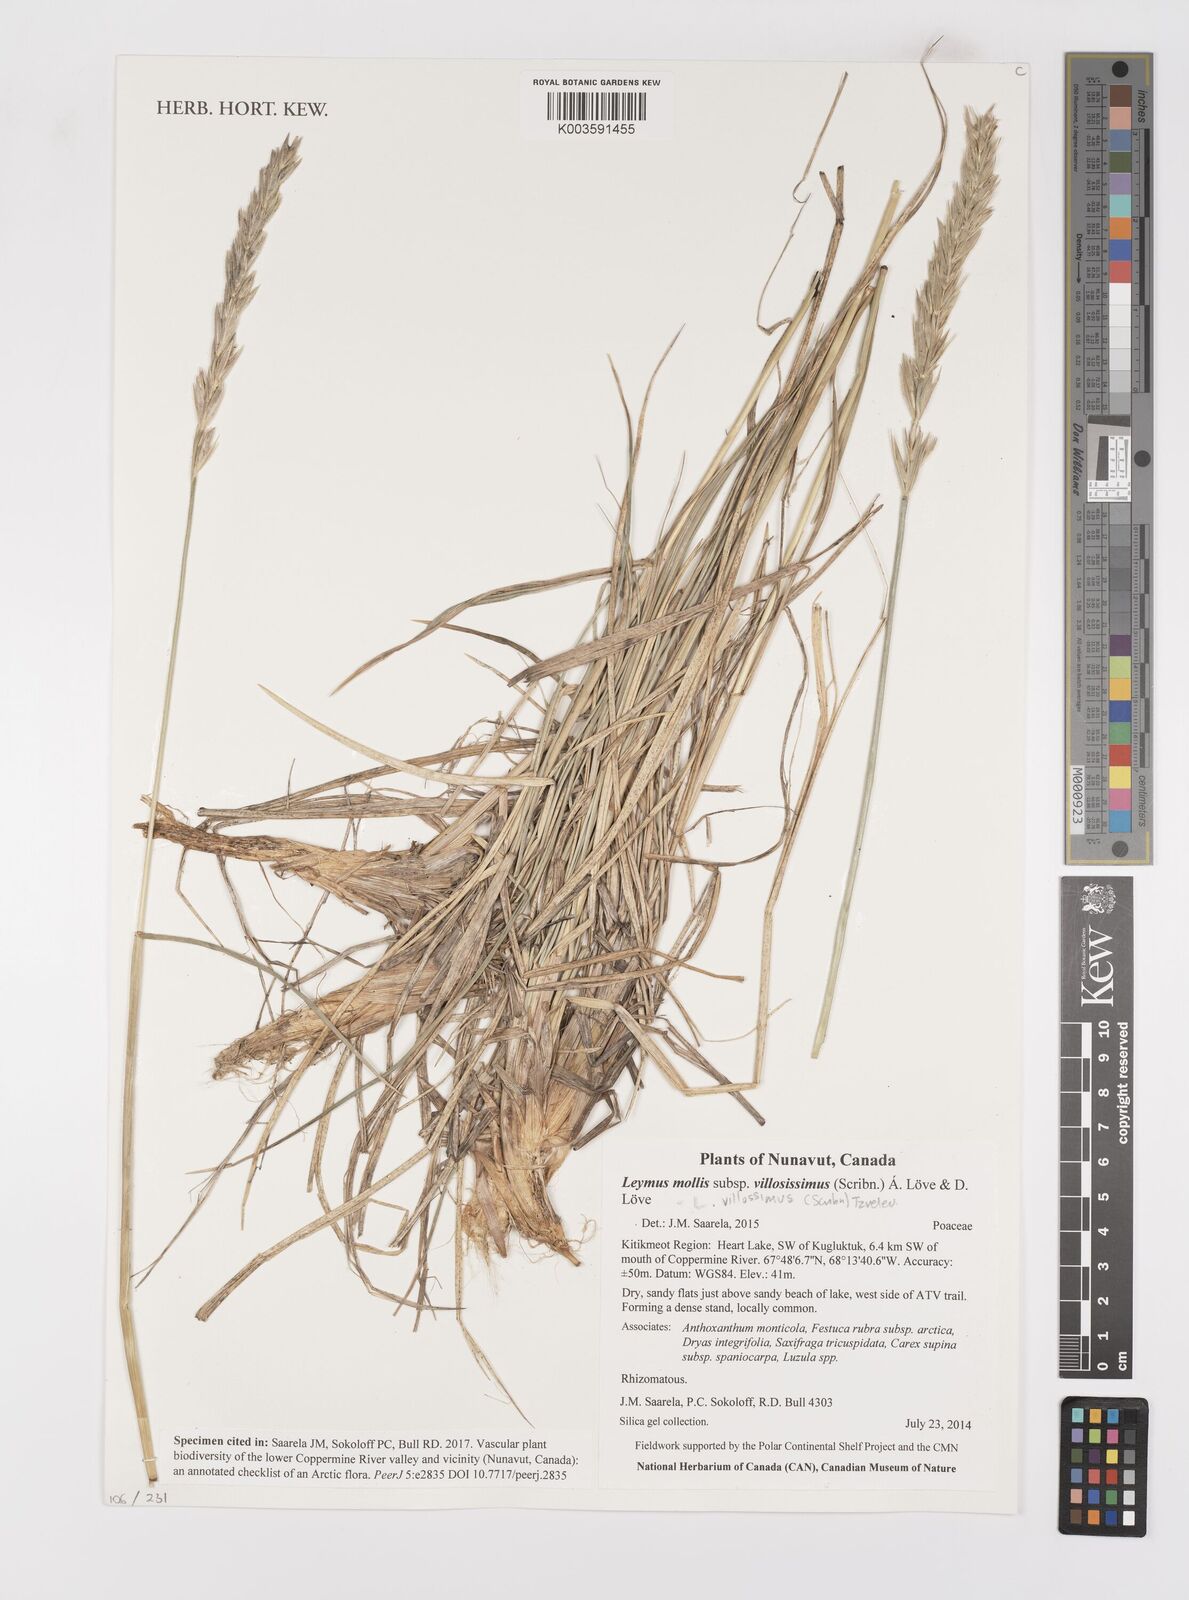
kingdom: Plantae
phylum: Tracheophyta
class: Liliopsida
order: Poales
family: Poaceae
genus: Leymus
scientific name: Leymus villosissimus
